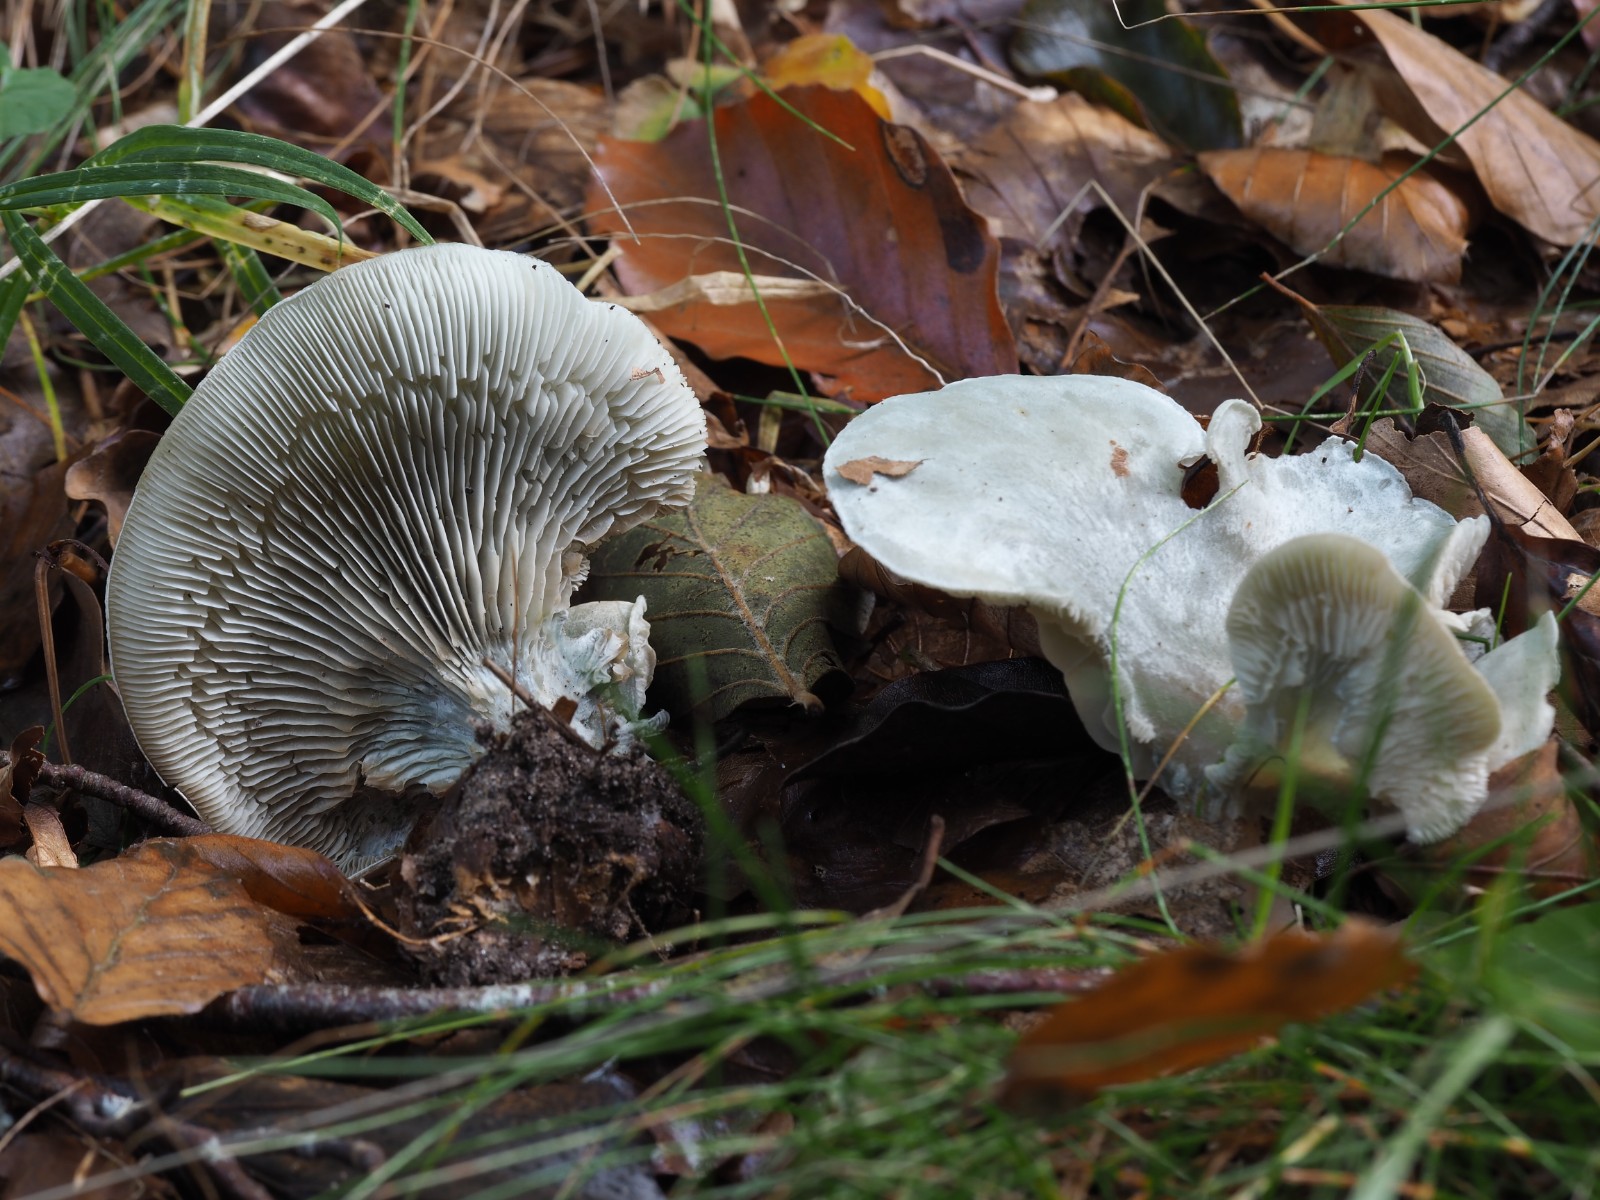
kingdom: Fungi
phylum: Basidiomycota
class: Agaricomycetes
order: Agaricales
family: Tricholomataceae
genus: Clitocybe
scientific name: Clitocybe odora
